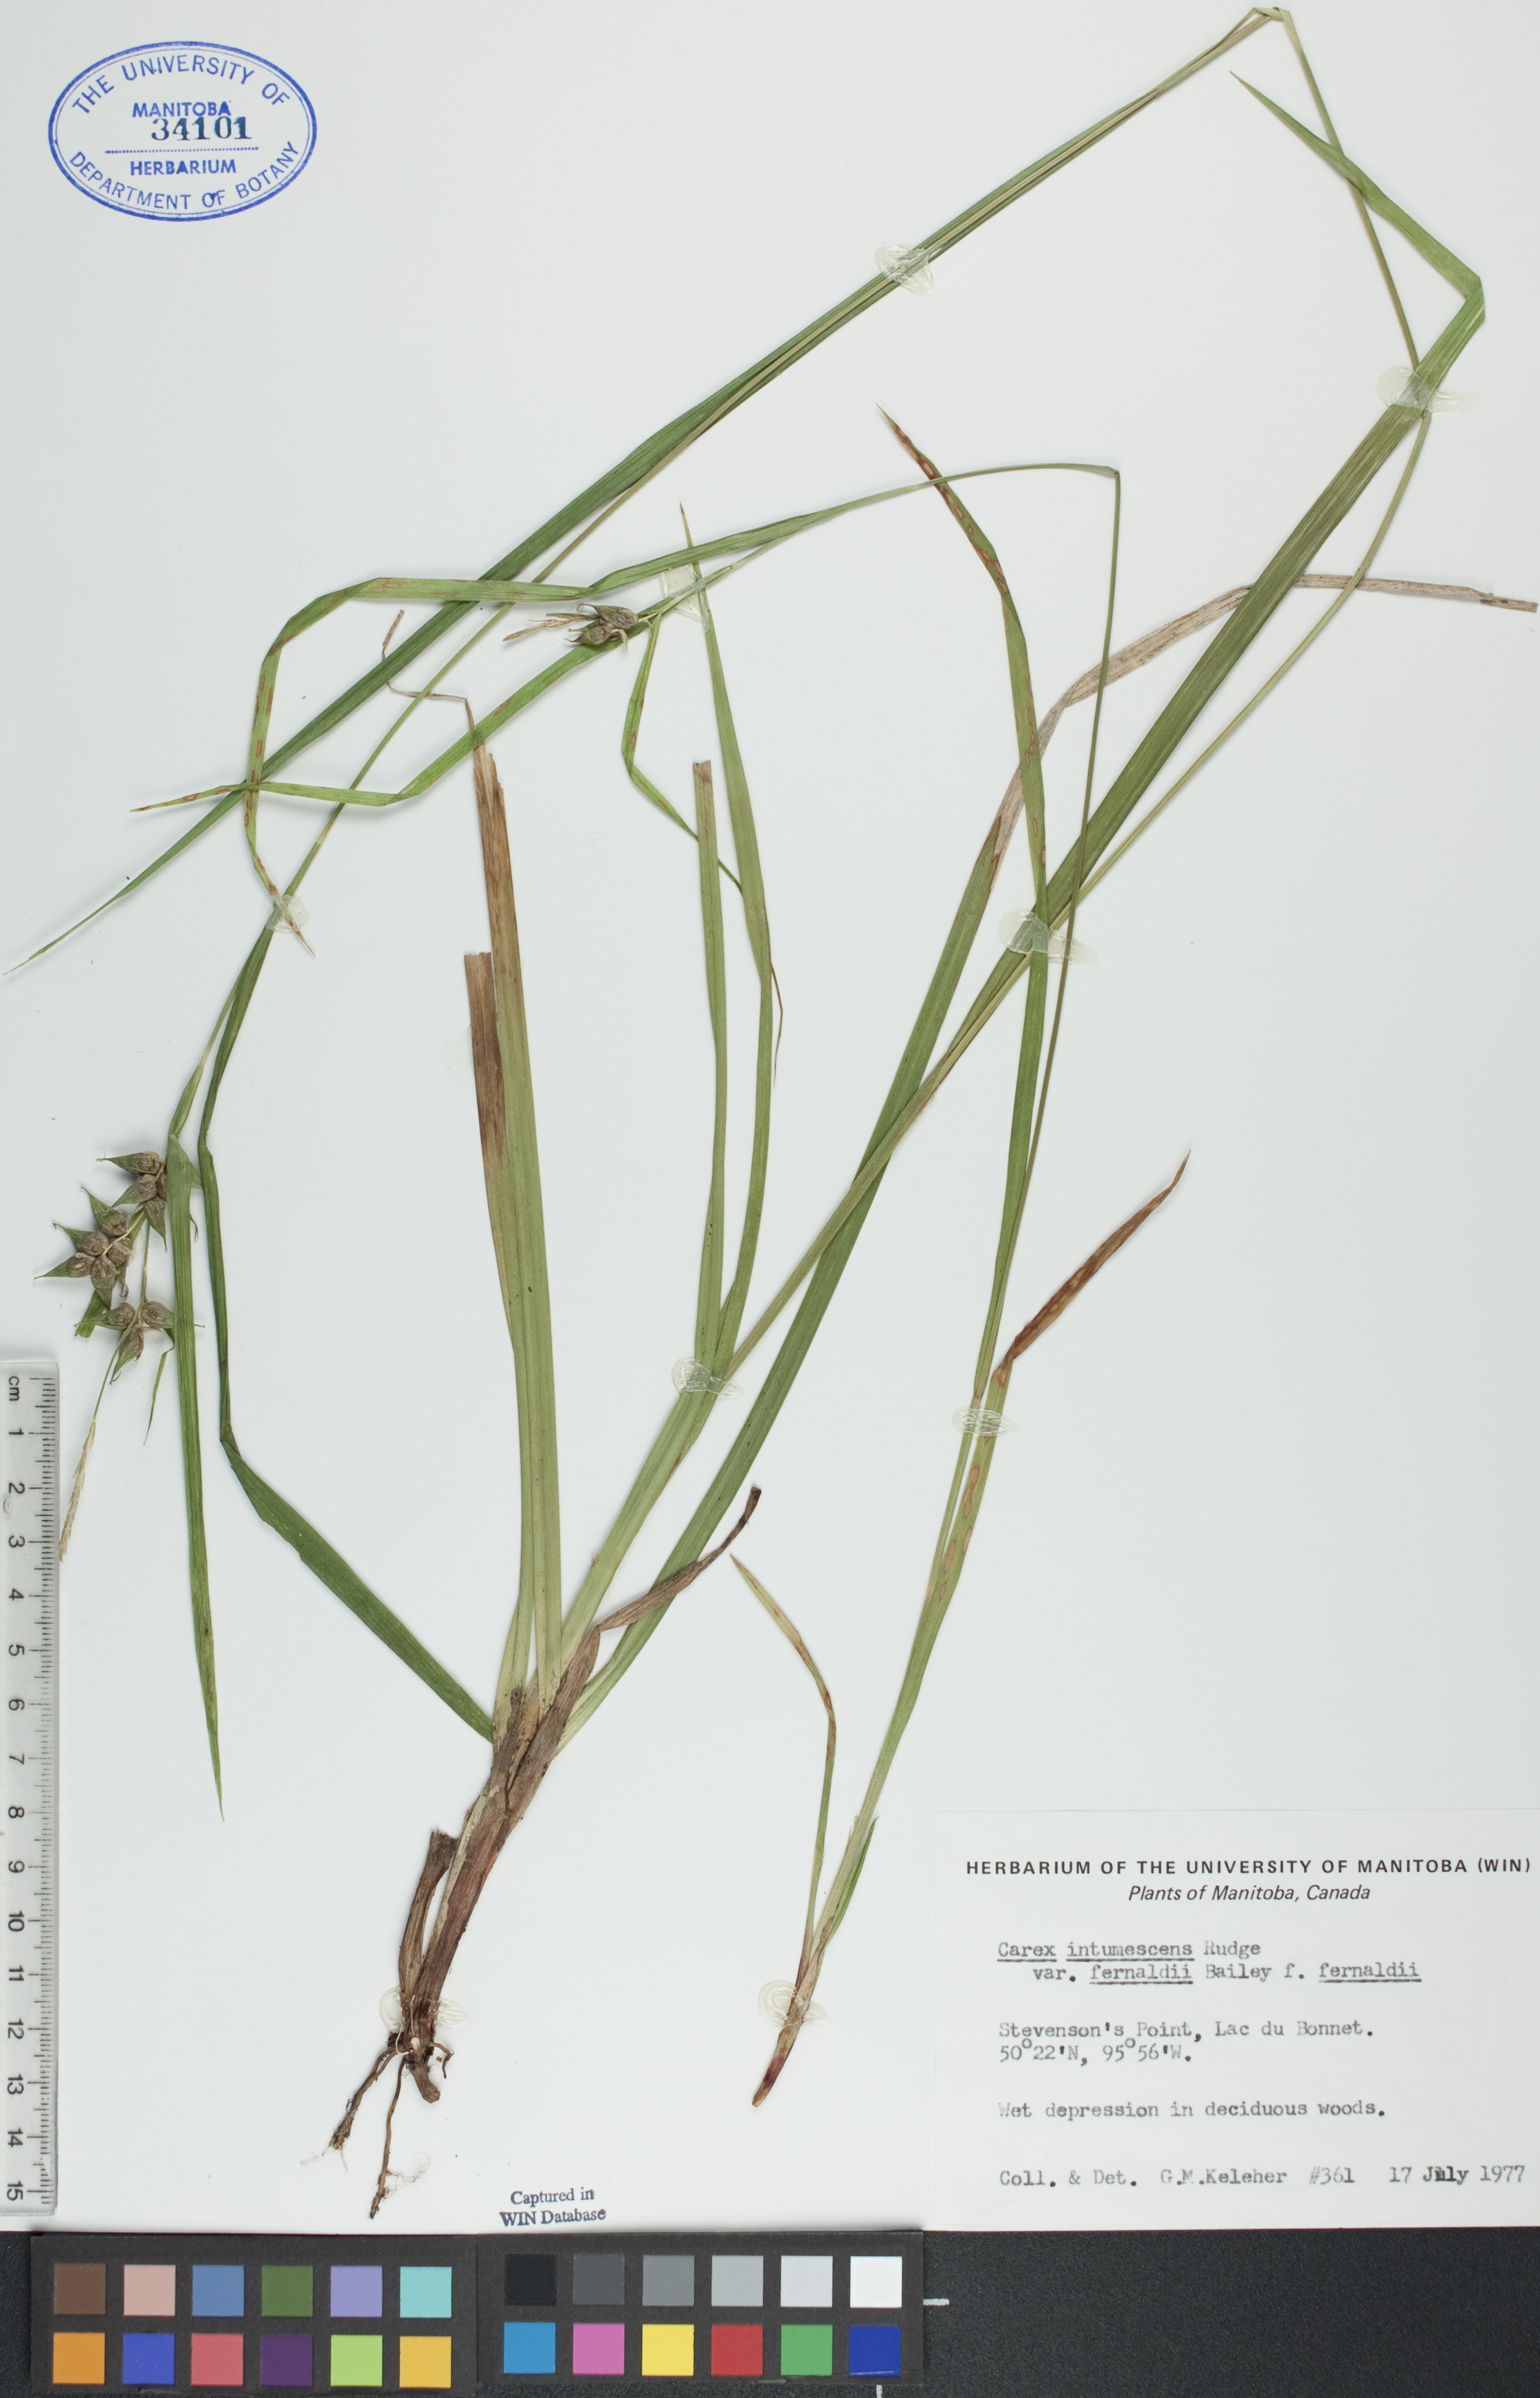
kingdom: Plantae
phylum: Tracheophyta
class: Liliopsida
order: Poales
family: Cyperaceae
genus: Carex
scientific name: Carex intumescens
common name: Greater bladder sedge
